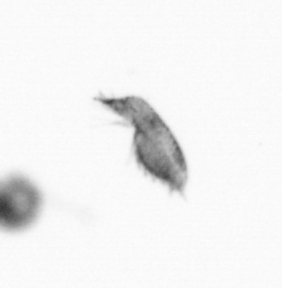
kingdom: Animalia
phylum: Arthropoda
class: Copepoda
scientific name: Copepoda
